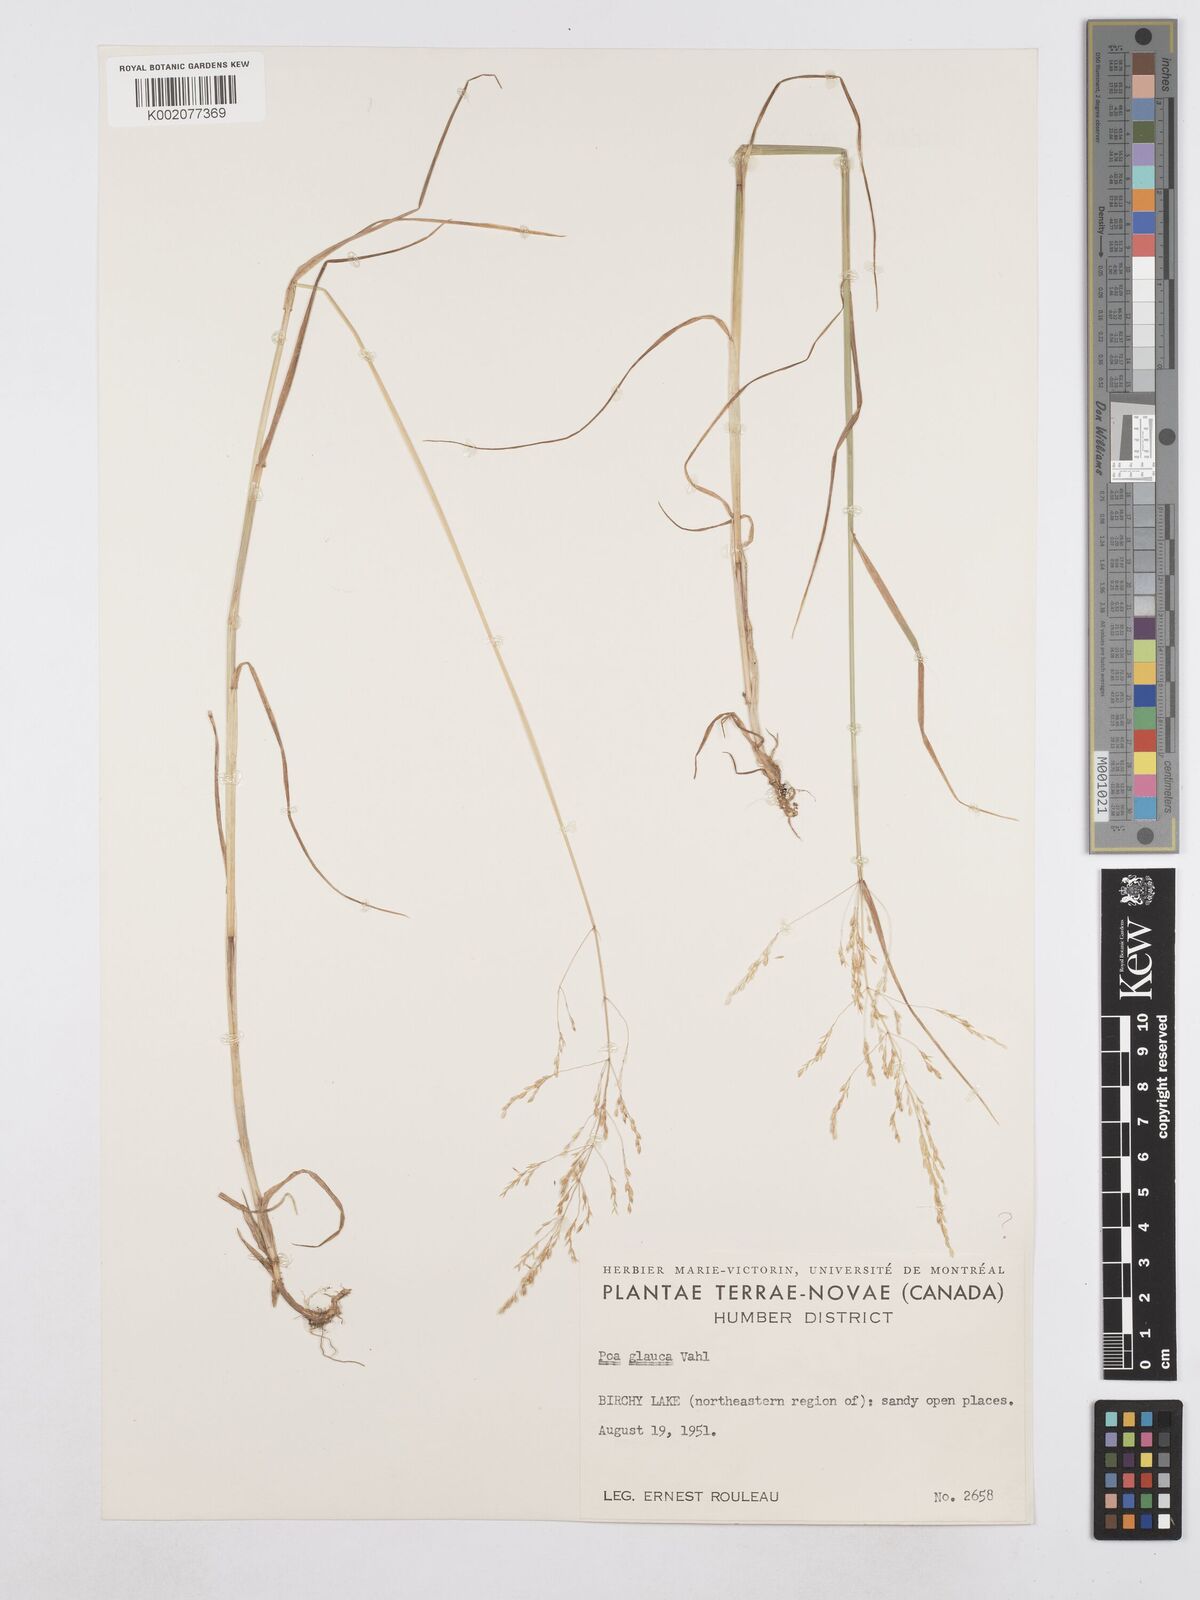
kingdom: Plantae
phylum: Tracheophyta
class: Liliopsida
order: Poales
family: Poaceae
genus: Poa
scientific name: Poa glauca
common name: Glaucous bluegrass
